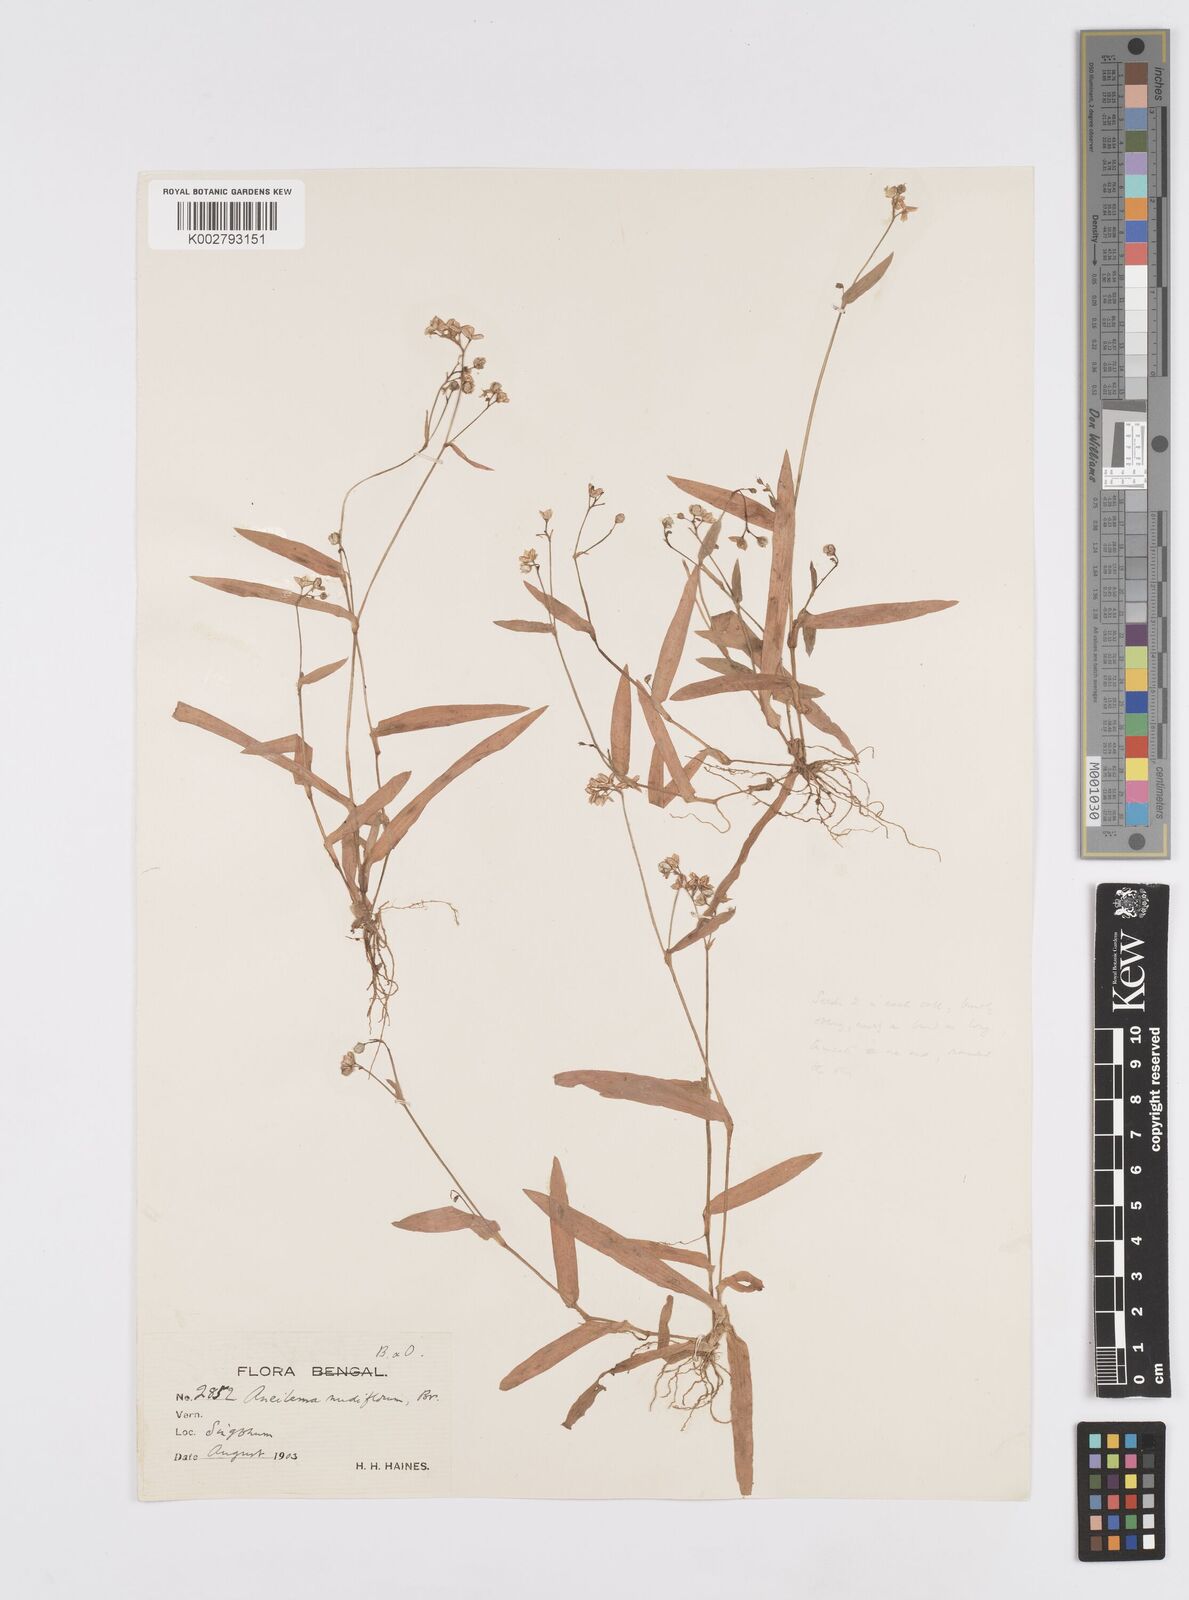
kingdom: Plantae
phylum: Tracheophyta
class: Liliopsida
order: Commelinales
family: Commelinaceae
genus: Murdannia
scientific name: Murdannia nudiflora
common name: Nakedstem dewflower
